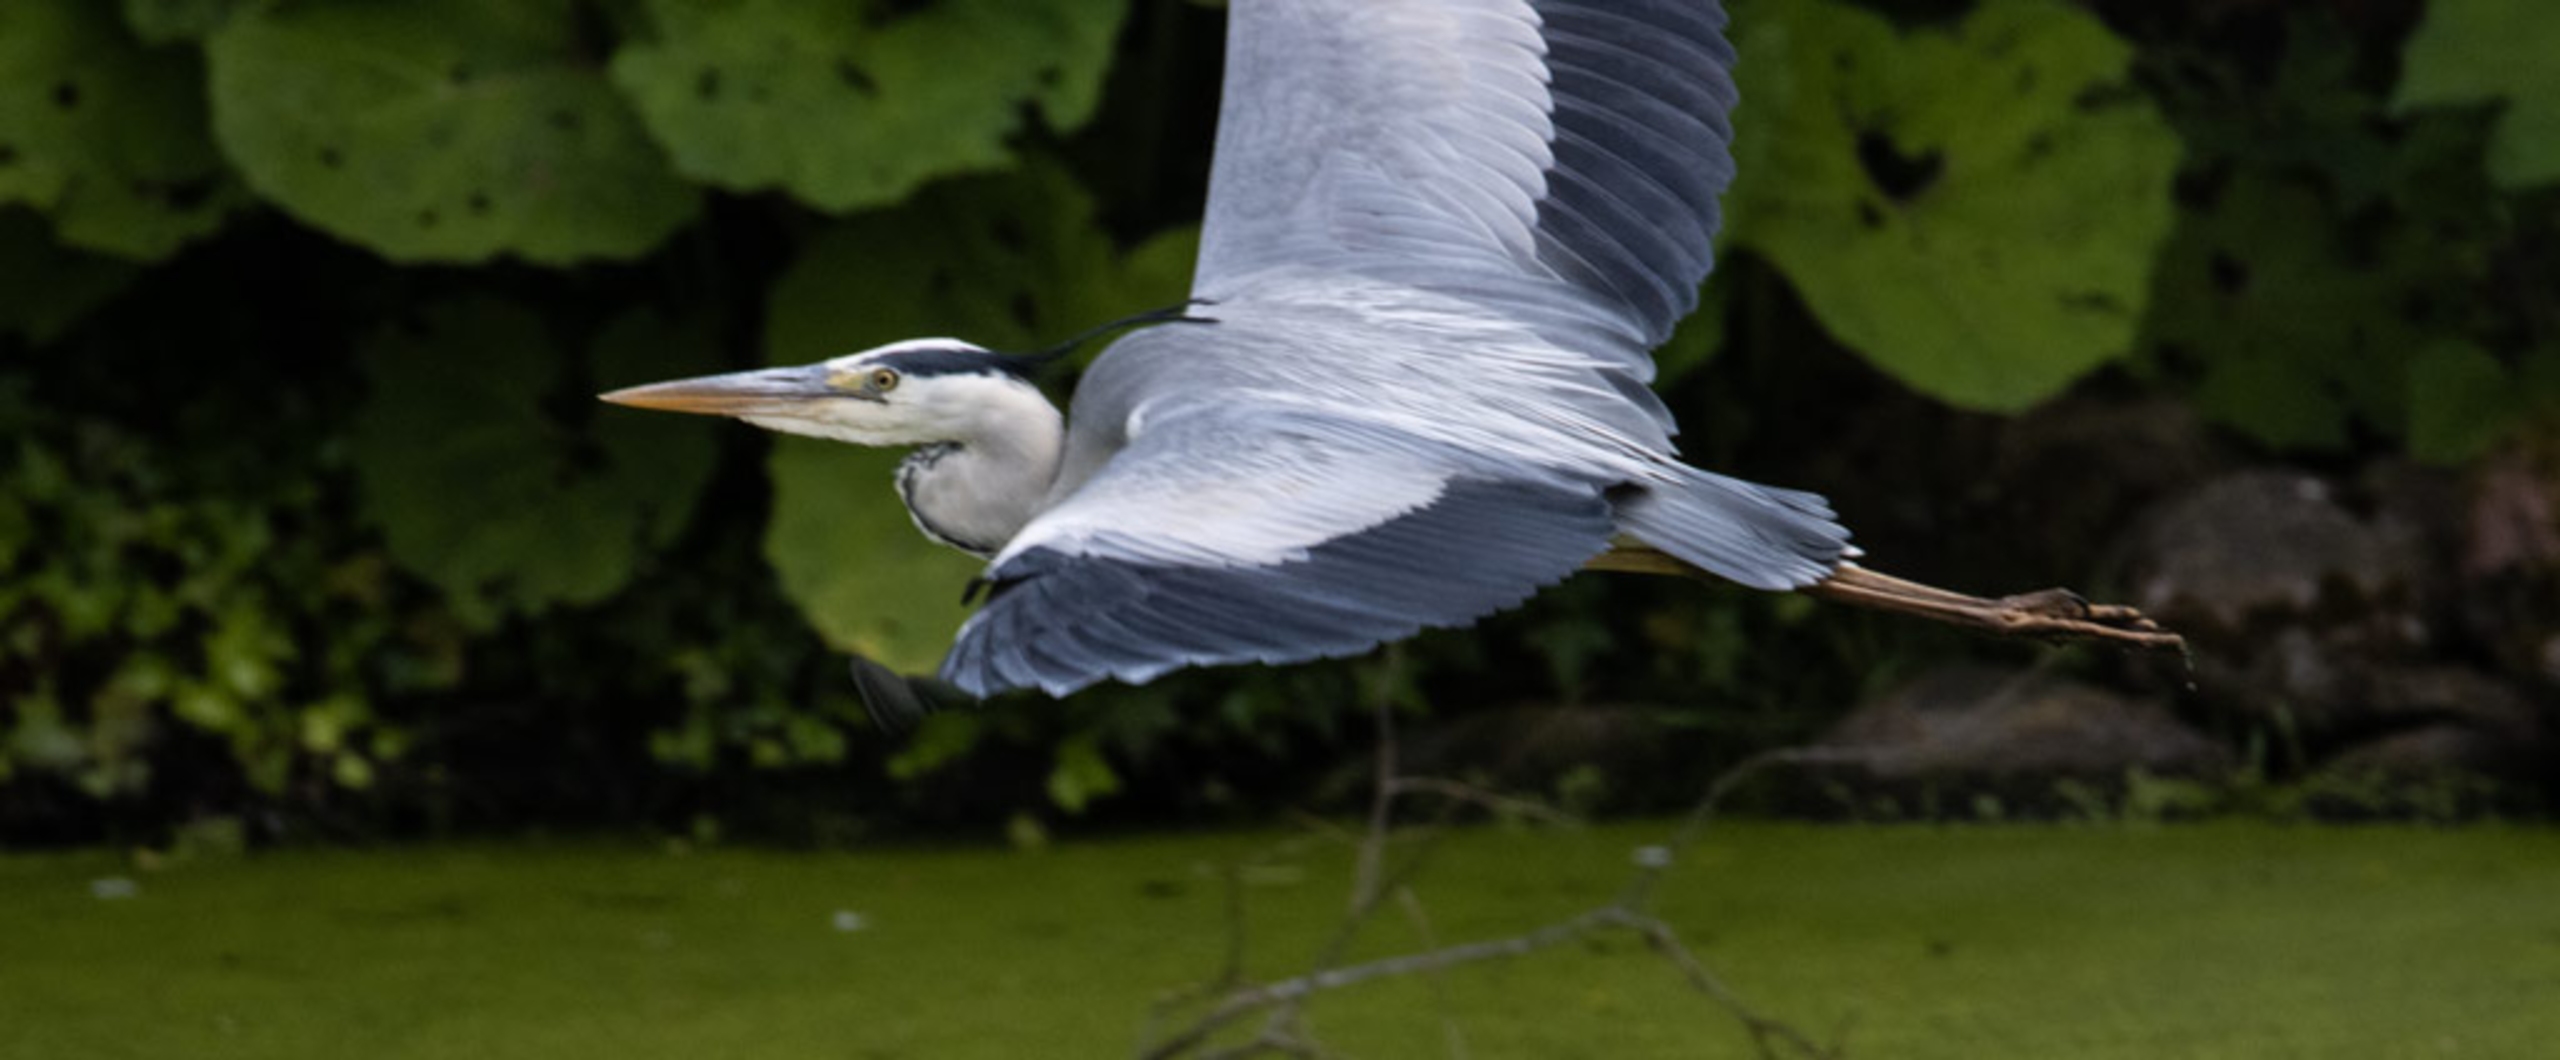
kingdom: Animalia
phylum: Chordata
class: Aves
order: Pelecaniformes
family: Ardeidae
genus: Ardea
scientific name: Ardea cinerea
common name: Fiskehejre
